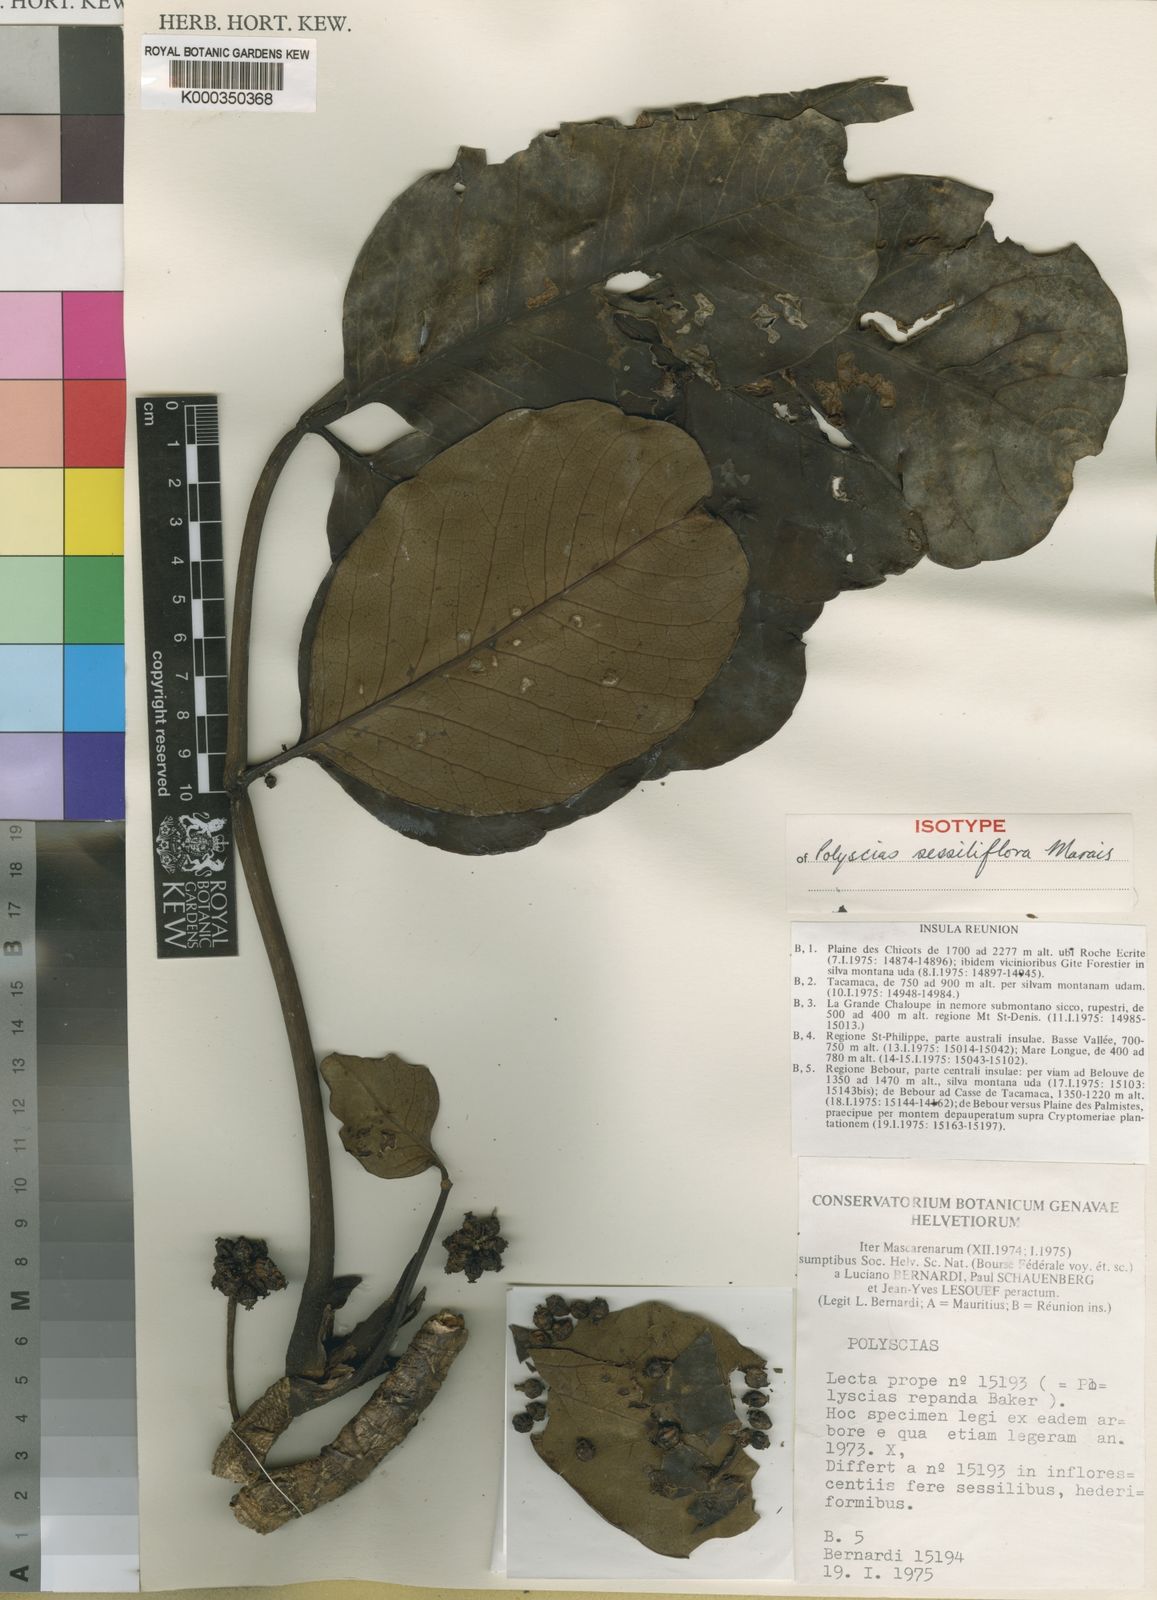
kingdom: Plantae
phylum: Tracheophyta
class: Magnoliopsida
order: Apiales
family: Araliaceae
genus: Polyscias
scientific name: Polyscias sessiliflora
